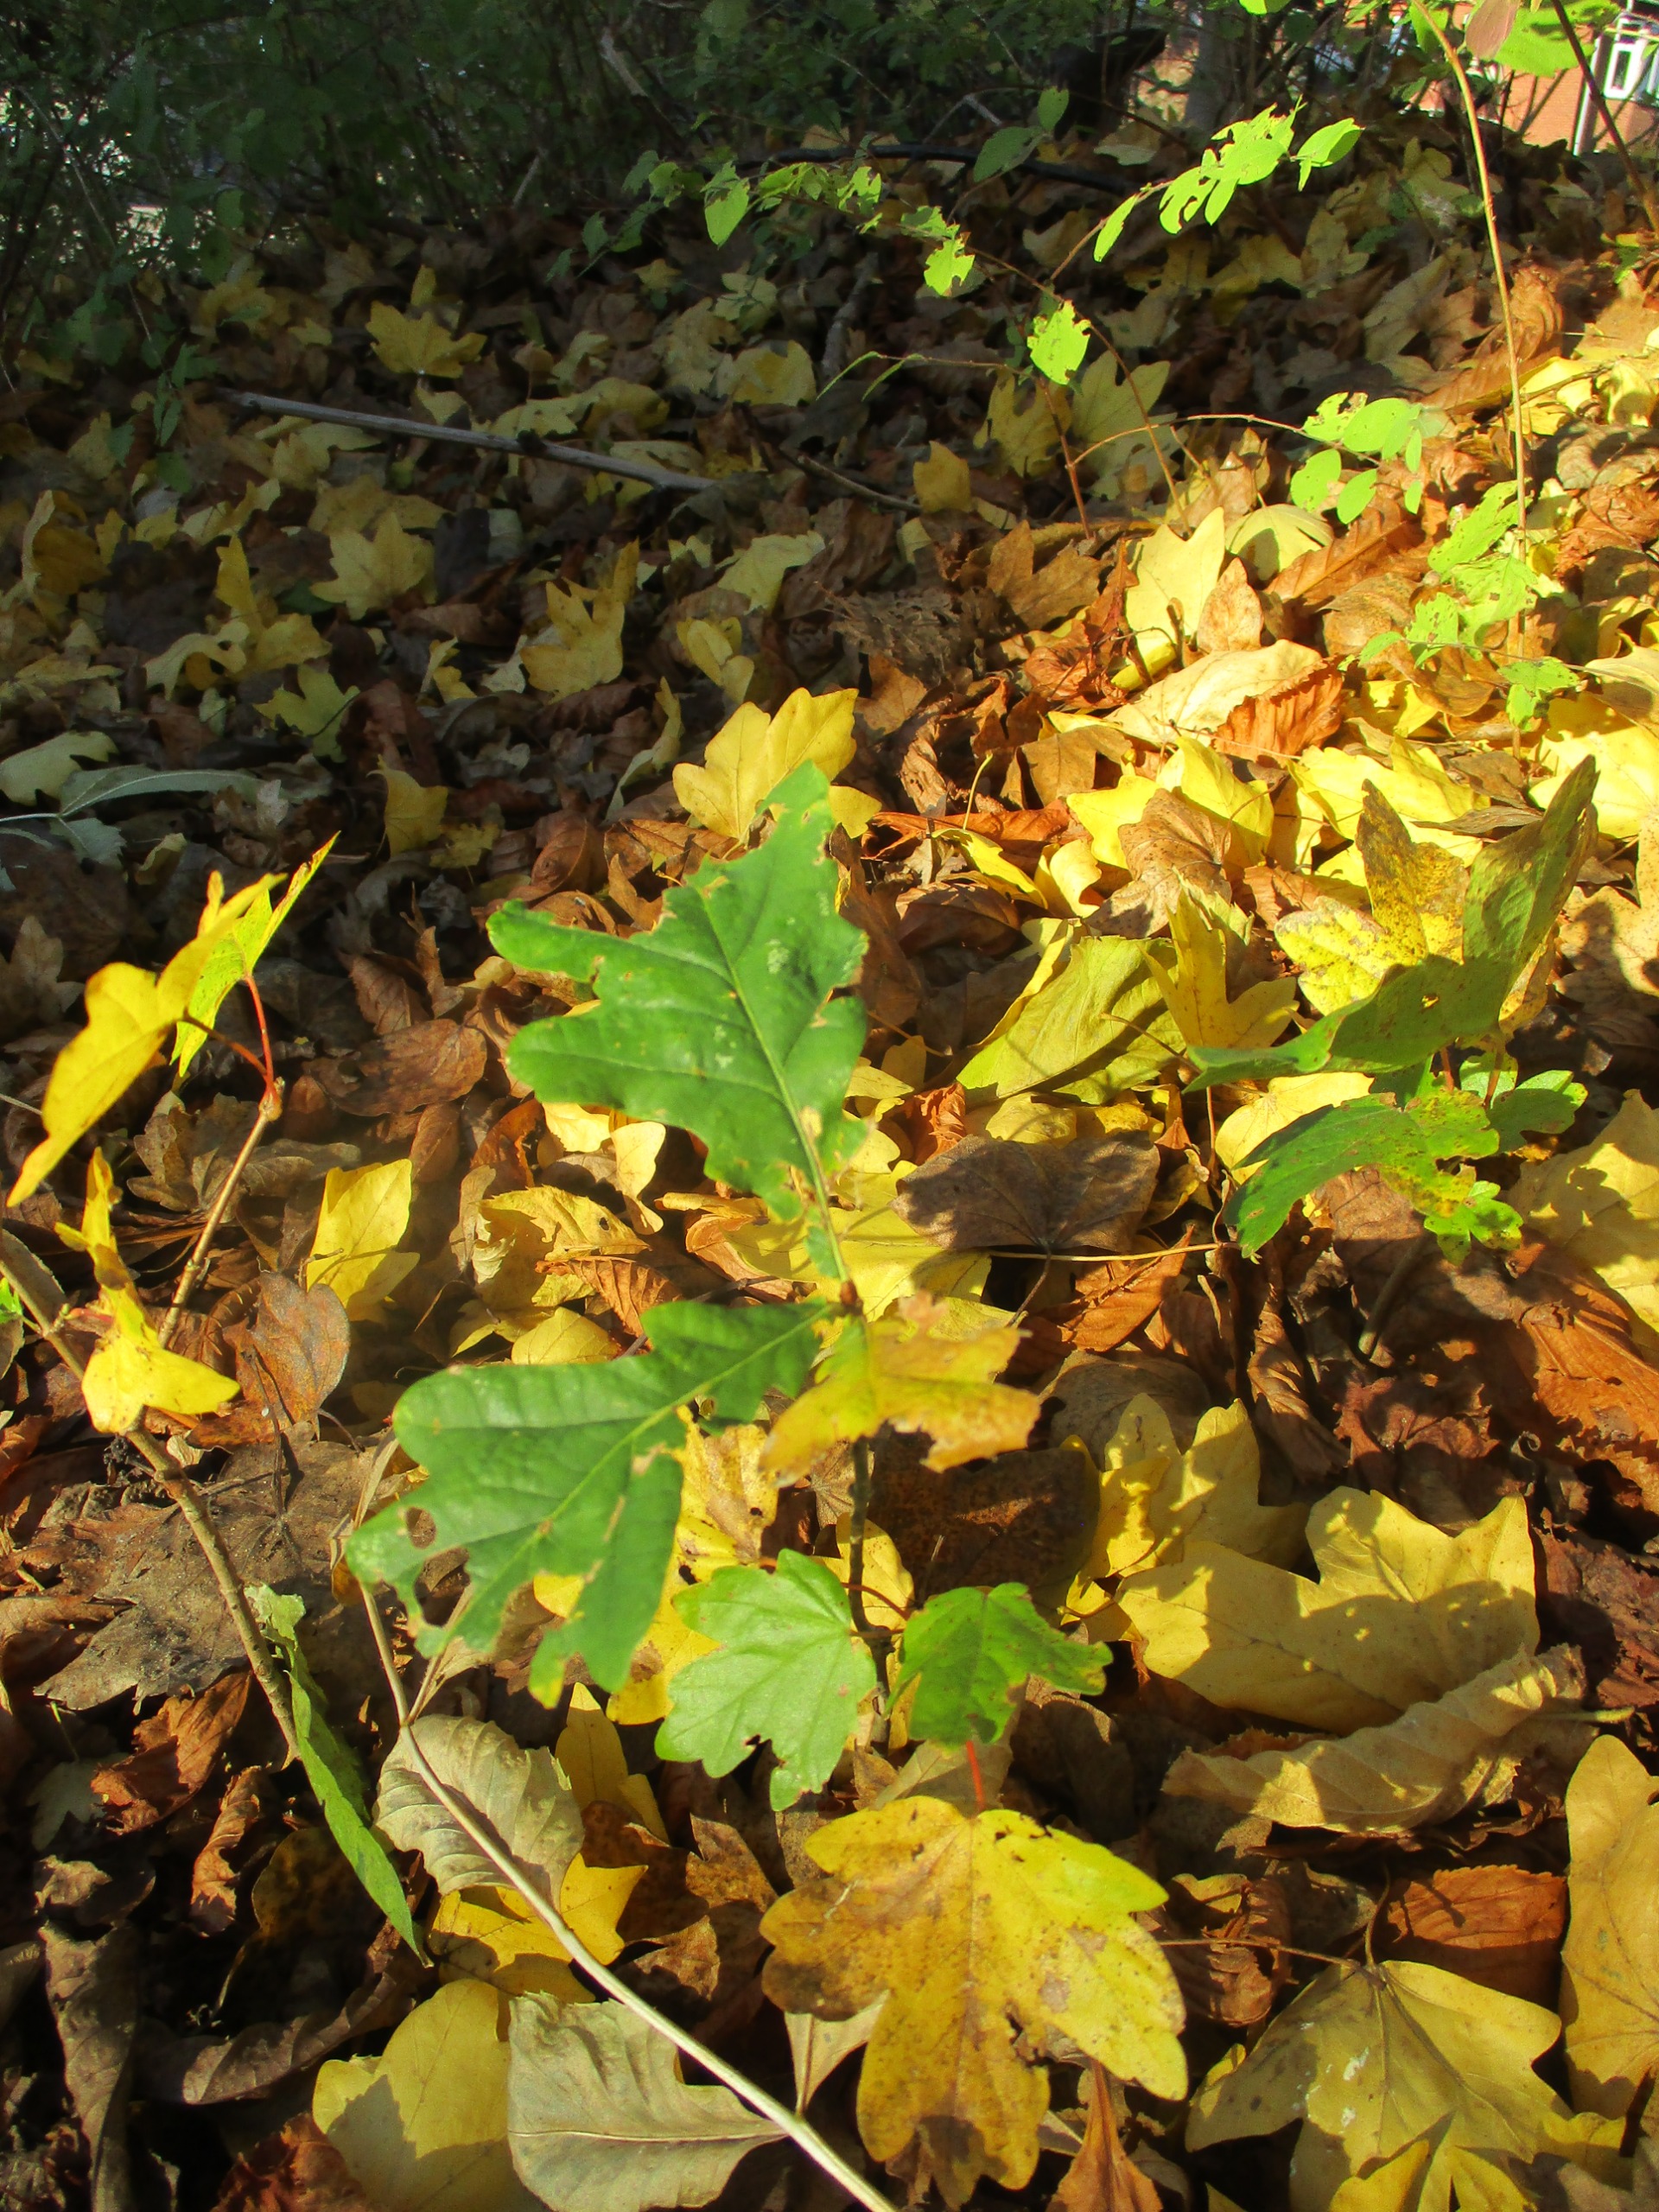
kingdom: Plantae
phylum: Tracheophyta
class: Magnoliopsida
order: Fagales
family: Fagaceae
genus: Quercus
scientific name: Quercus robur
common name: Stilk-eg/almindelig eg
